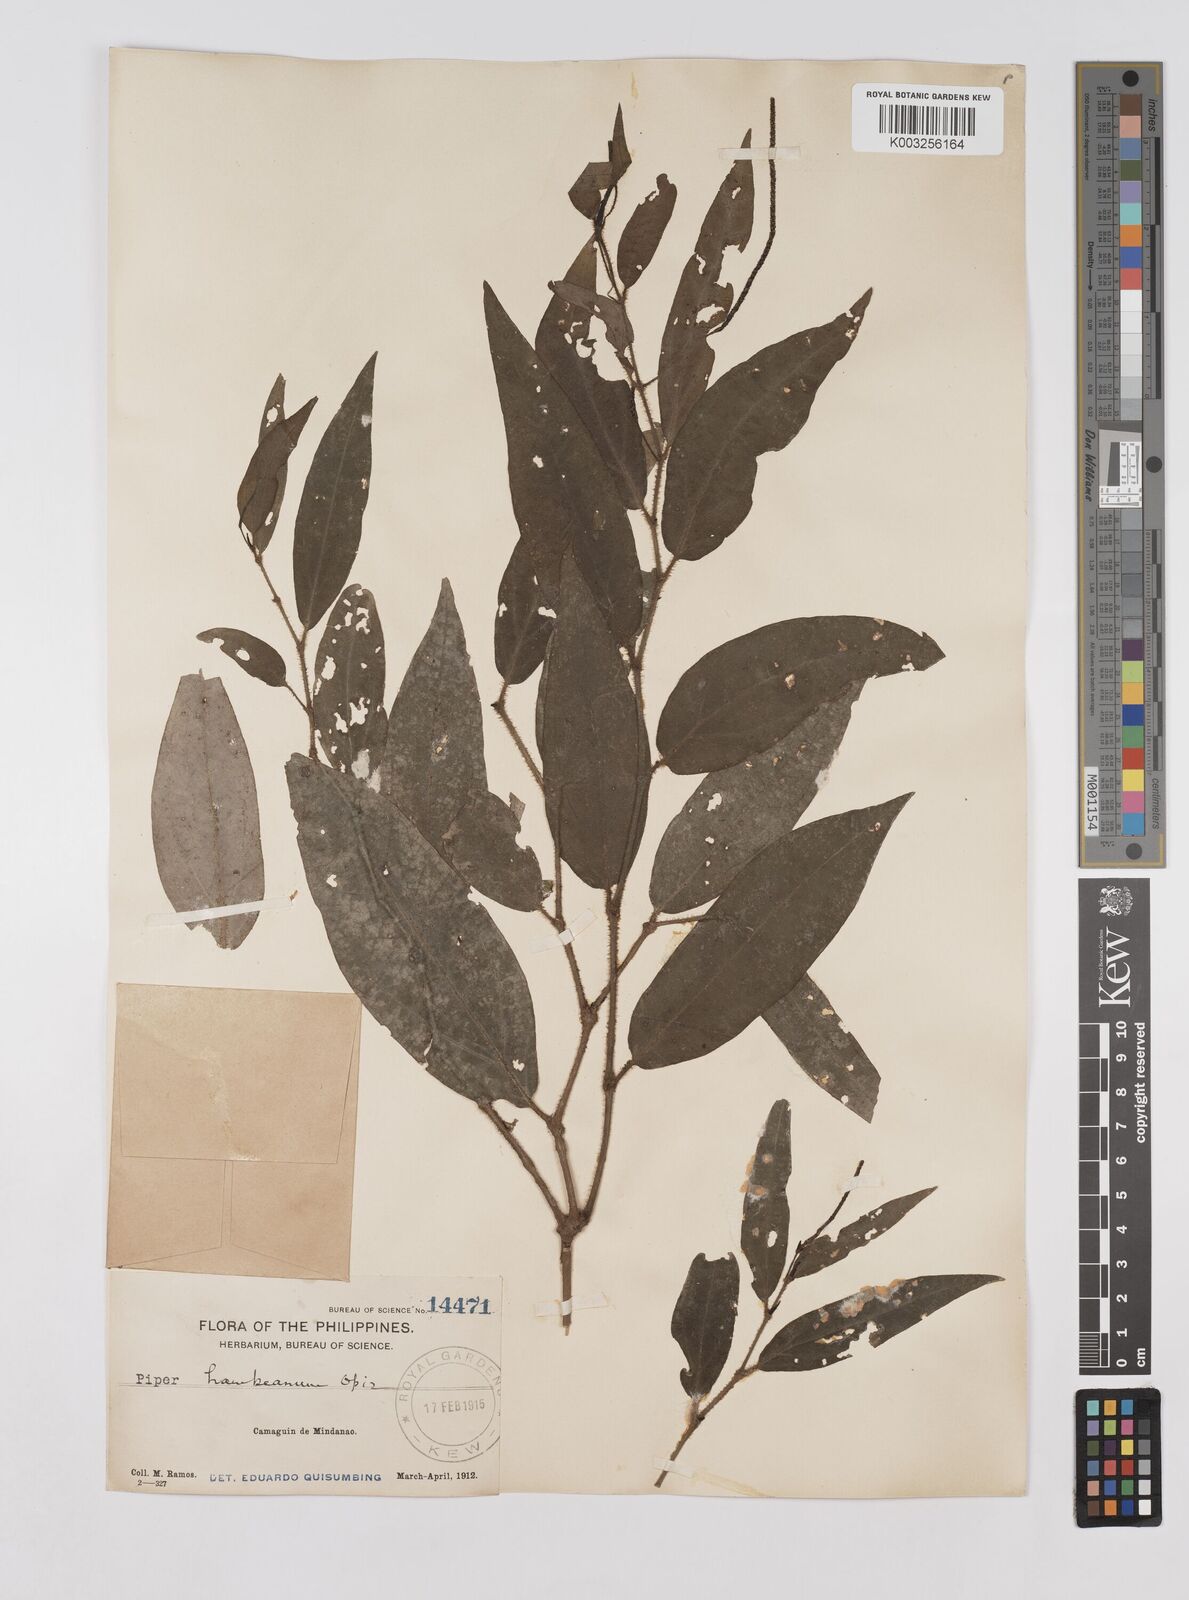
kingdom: Plantae
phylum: Tracheophyta
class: Magnoliopsida
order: Piperales
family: Piperaceae
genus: Piper
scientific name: Piper lanatum
